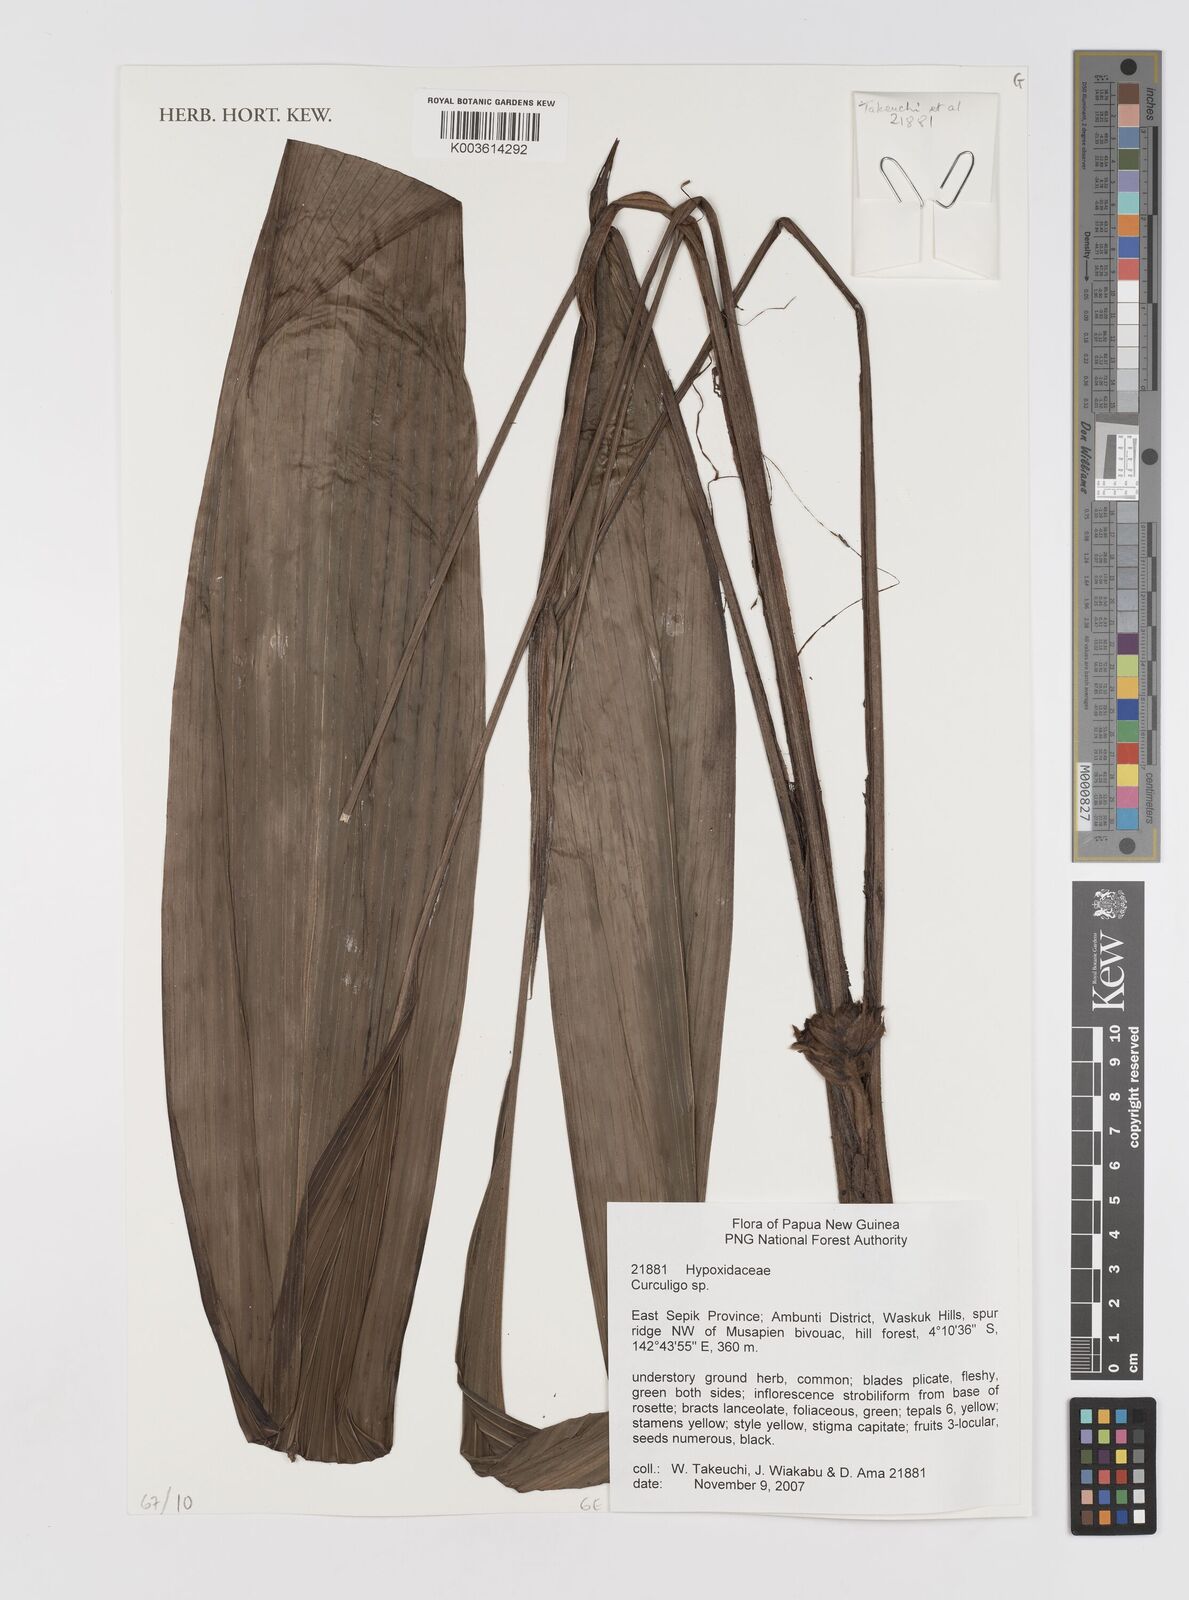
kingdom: Plantae
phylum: Tracheophyta
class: Liliopsida
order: Asparagales
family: Hypoxidaceae
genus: Curculigo
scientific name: Curculigo
